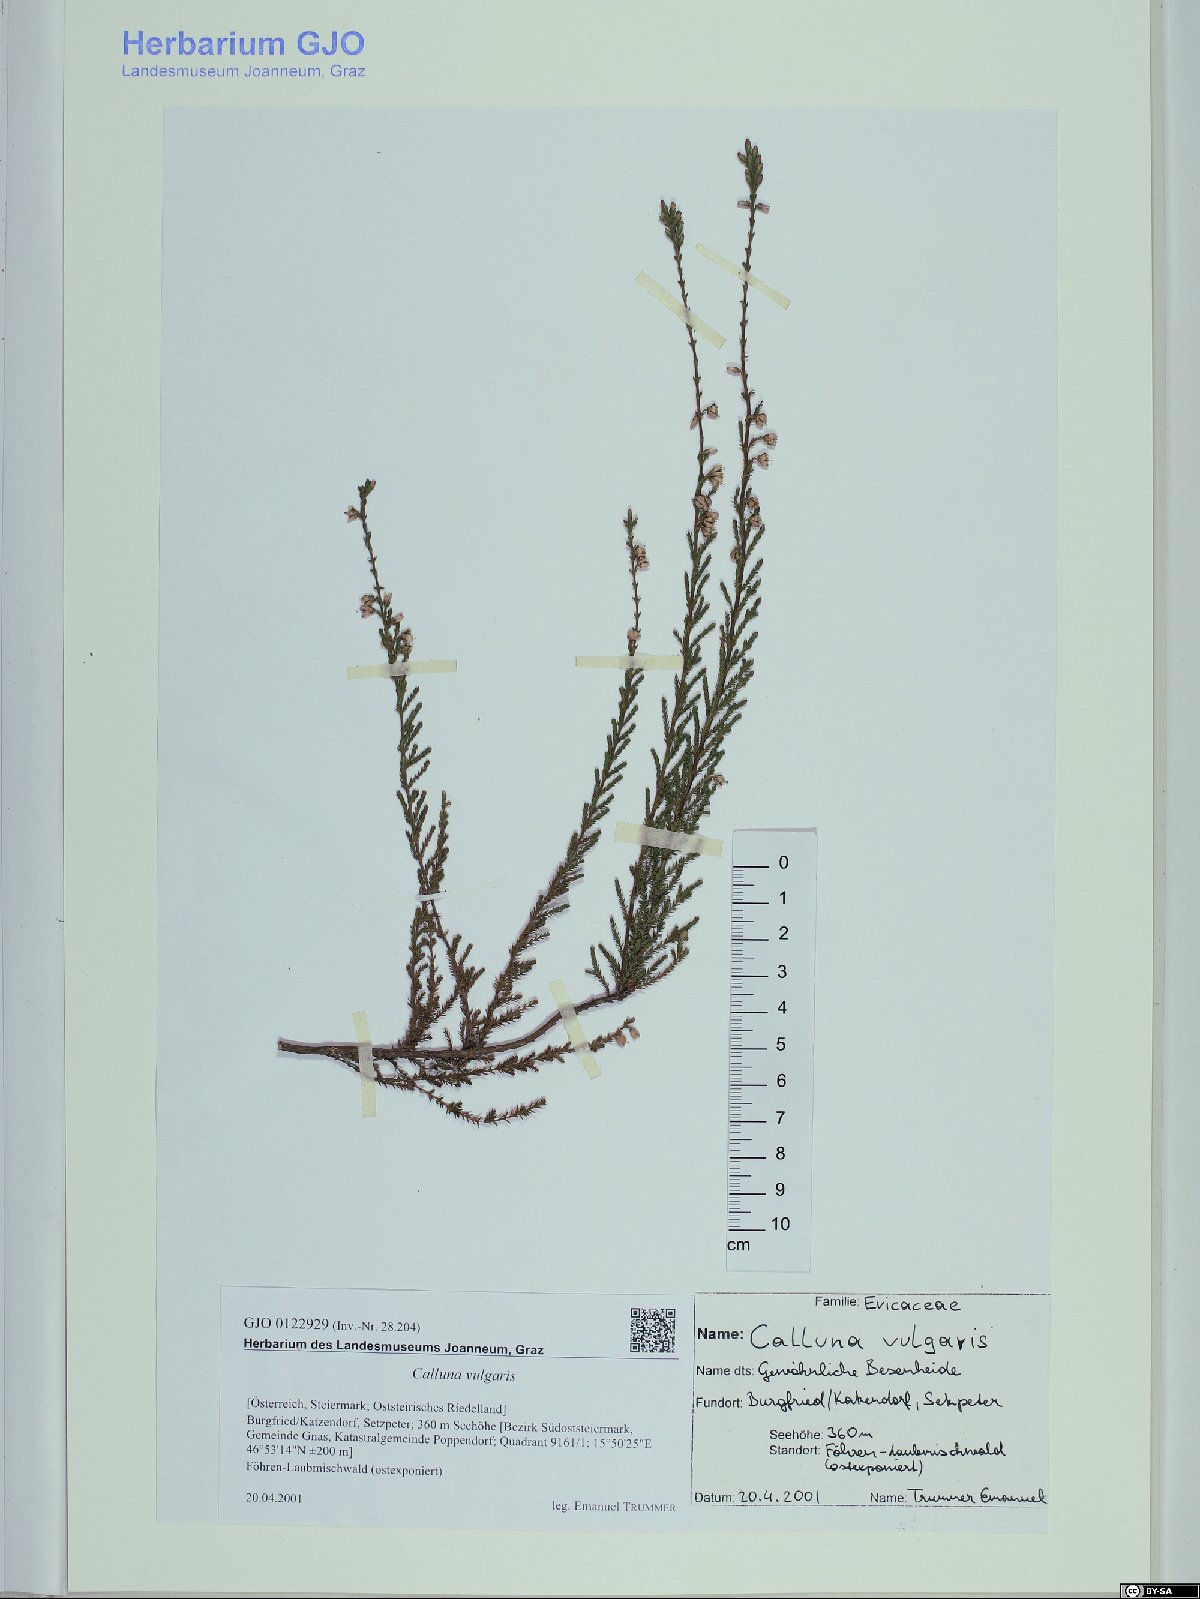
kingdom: Plantae
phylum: Tracheophyta
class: Magnoliopsida
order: Ericales
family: Ericaceae
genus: Calluna
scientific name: Calluna vulgaris
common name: Heather
